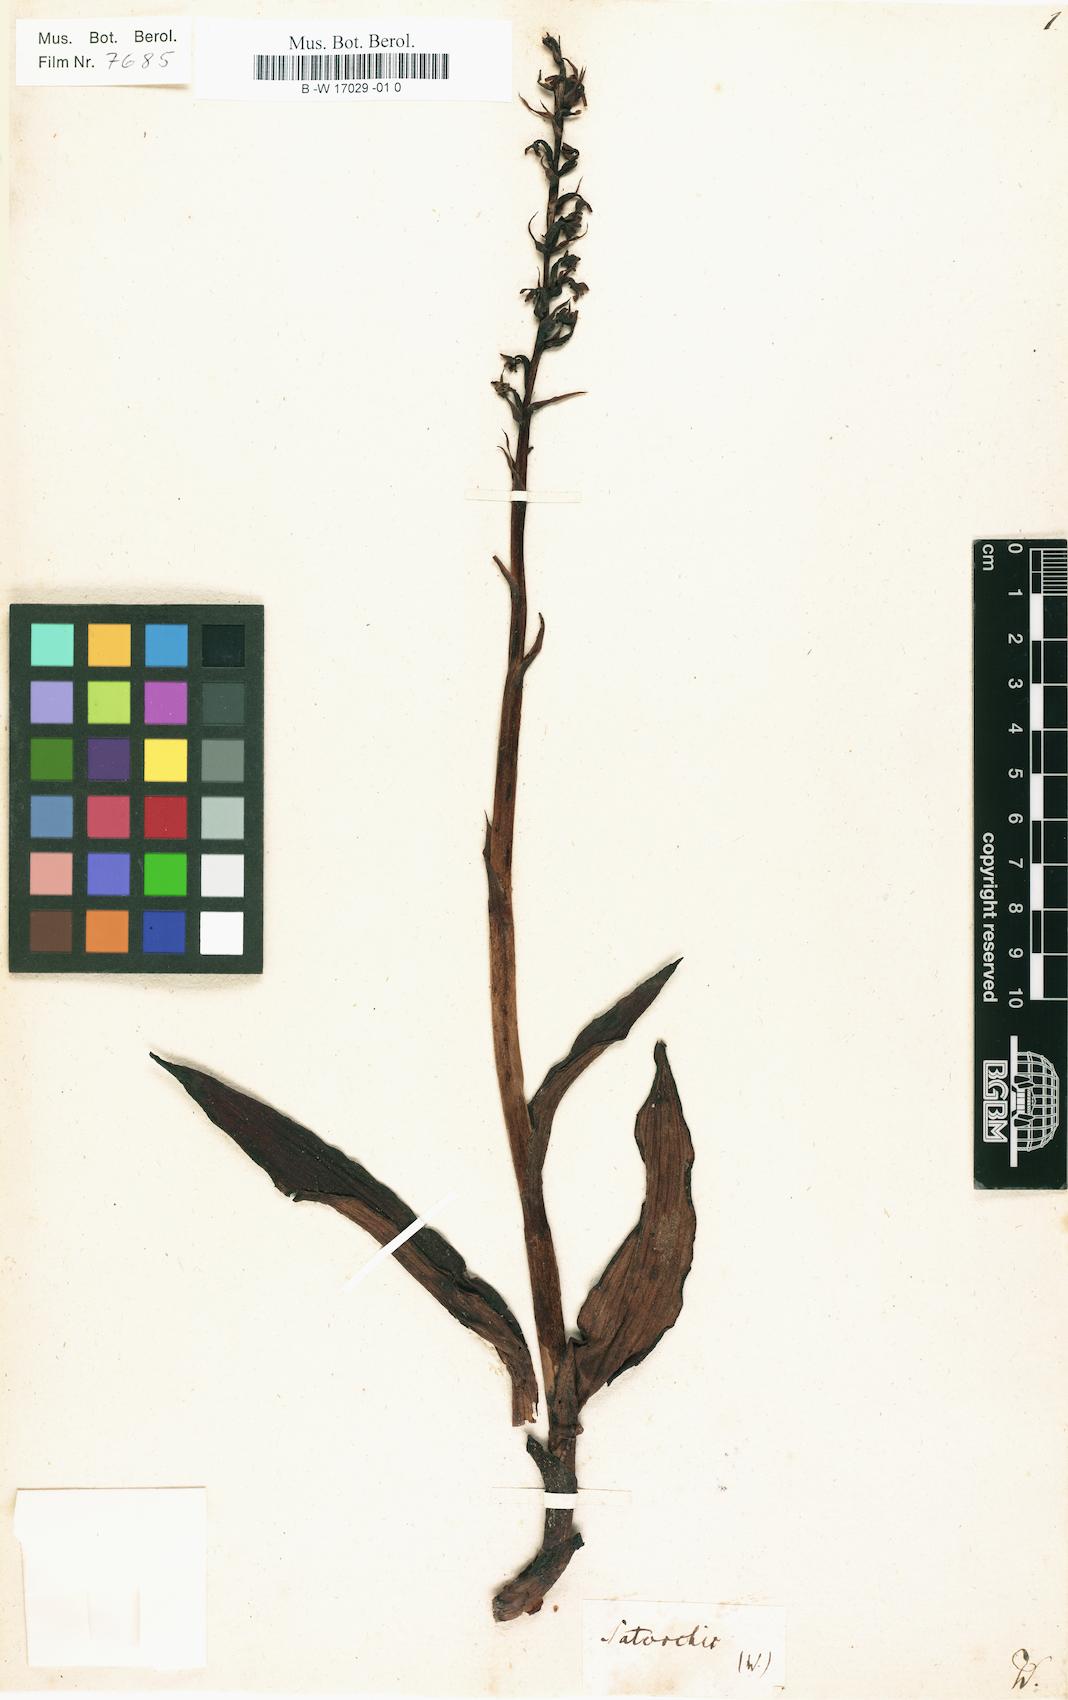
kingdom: Plantae
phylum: Tracheophyta
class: Liliopsida
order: Asparagales
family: Orchidaceae
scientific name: Orchidaceae
